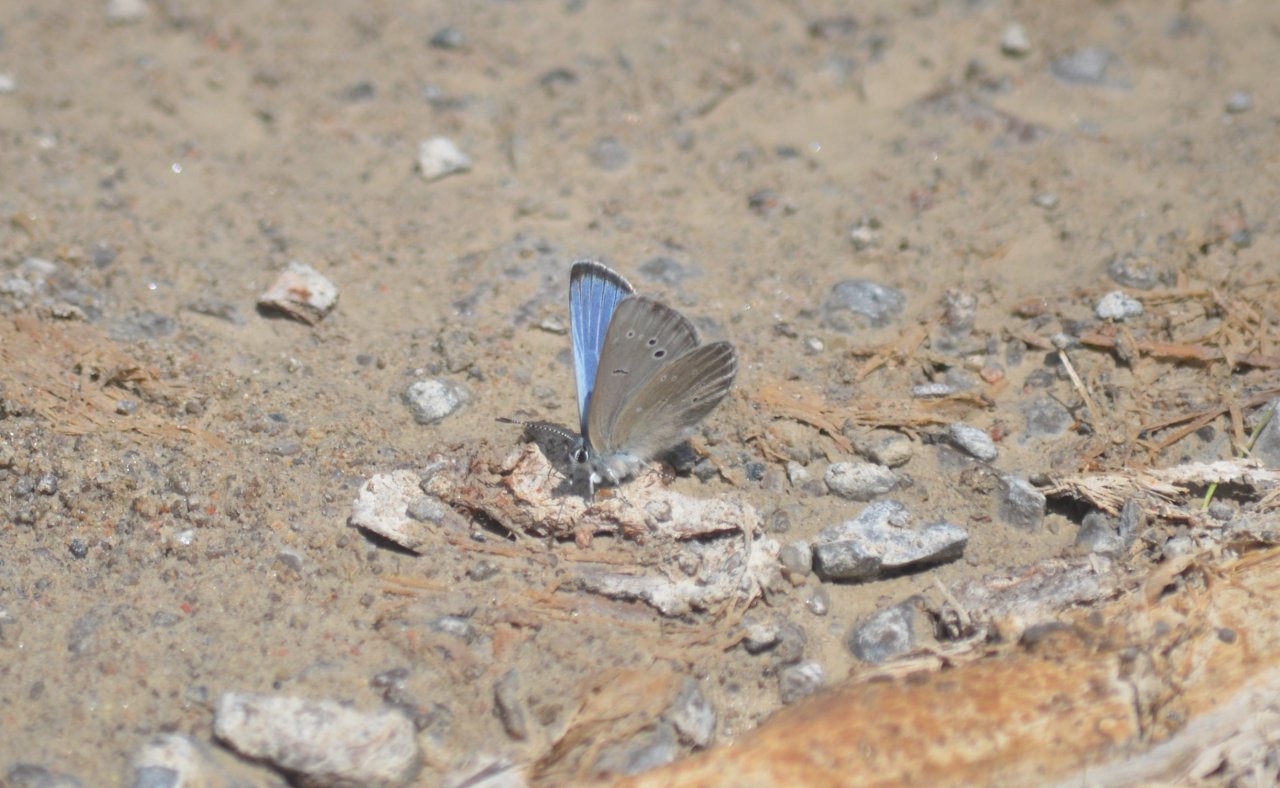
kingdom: Animalia
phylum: Arthropoda
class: Insecta
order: Lepidoptera
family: Lycaenidae
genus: Glaucopsyche
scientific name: Glaucopsyche lygdamus
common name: Silvery Blue
